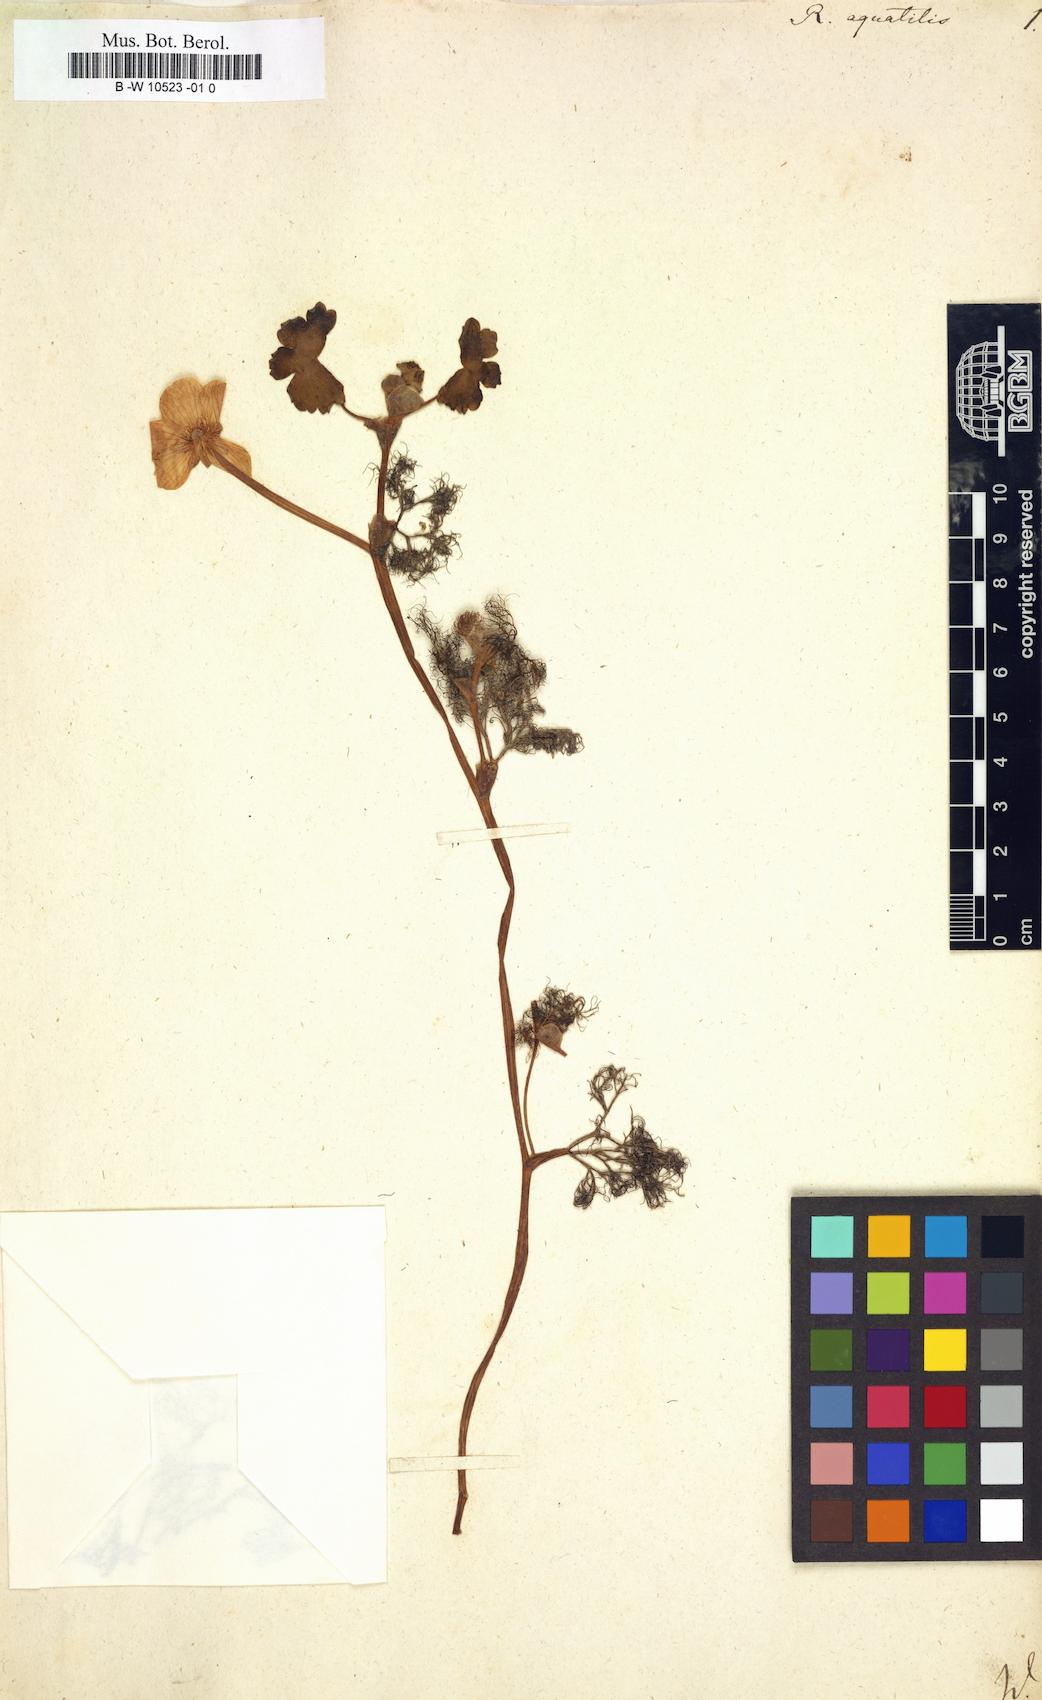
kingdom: Plantae
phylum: Tracheophyta
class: Magnoliopsida
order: Ranunculales
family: Ranunculaceae
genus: Ranunculus
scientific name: Ranunculus aquatilis
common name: Common water-crowfoot
